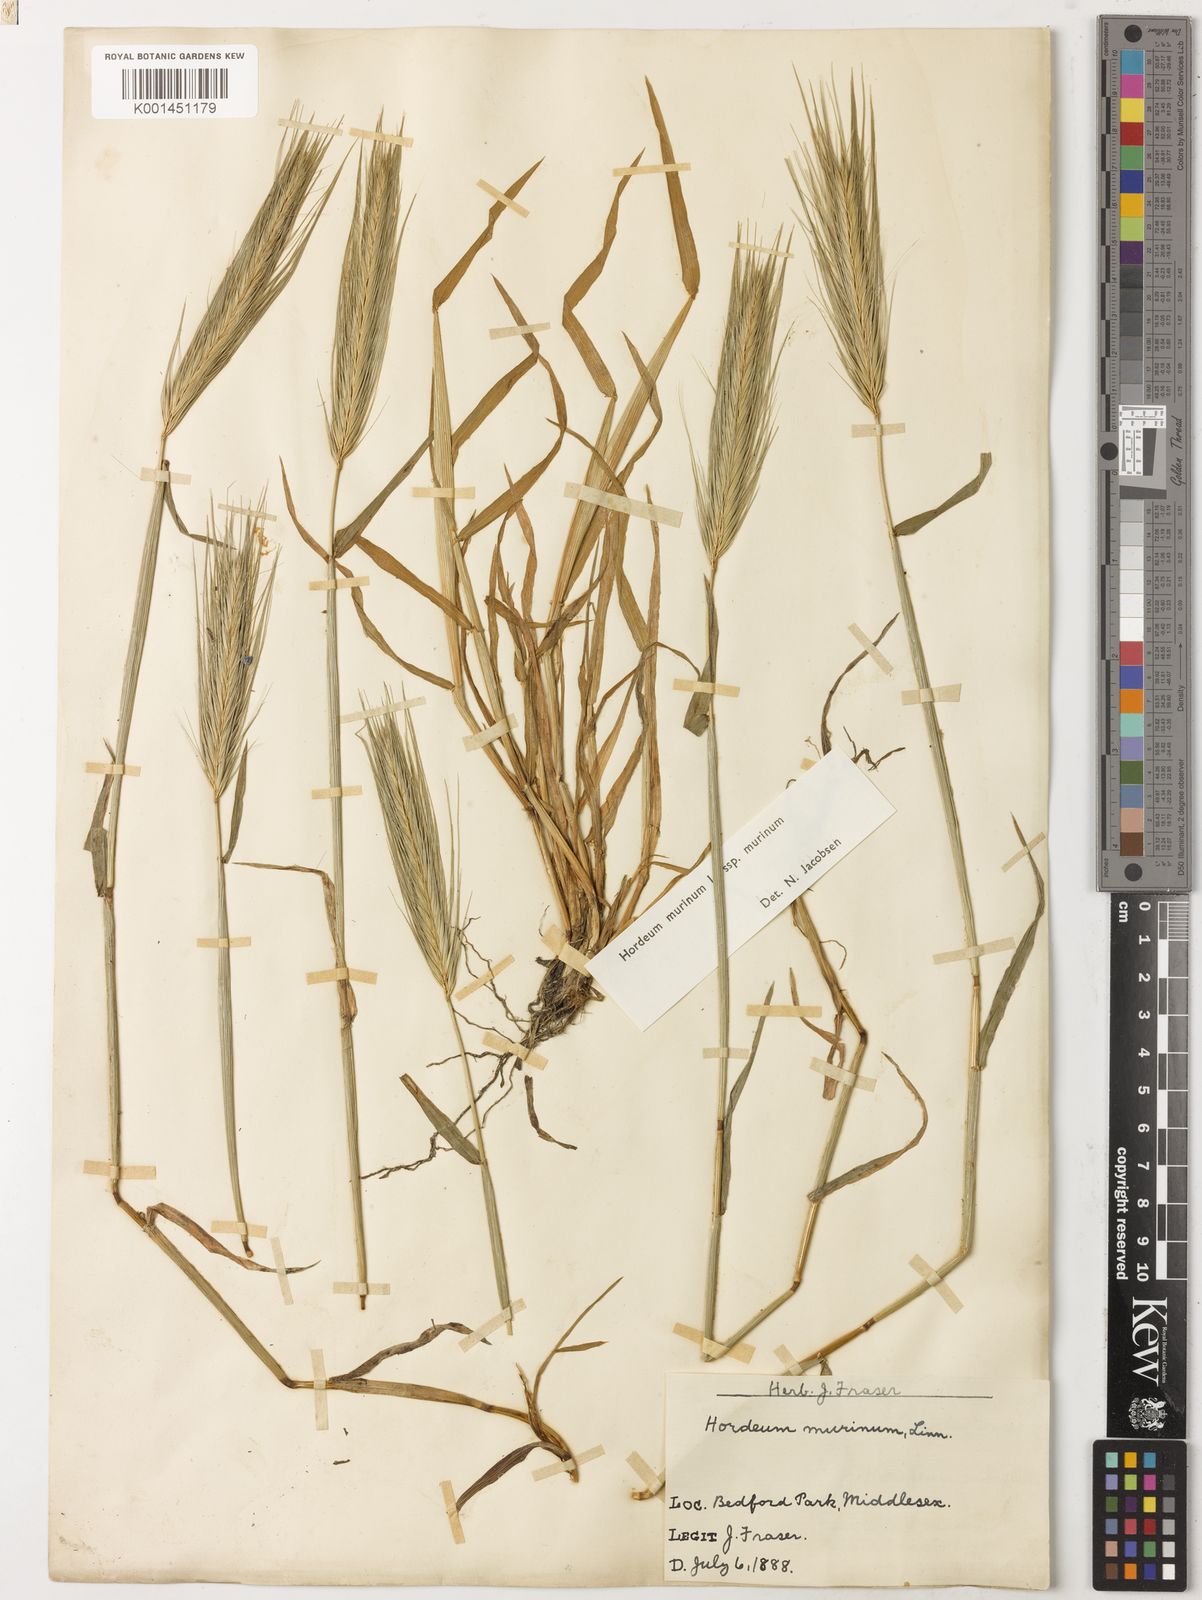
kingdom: Plantae
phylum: Tracheophyta
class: Liliopsida
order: Poales
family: Poaceae
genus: Hordeum
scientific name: Hordeum murinum
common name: Wall barley
